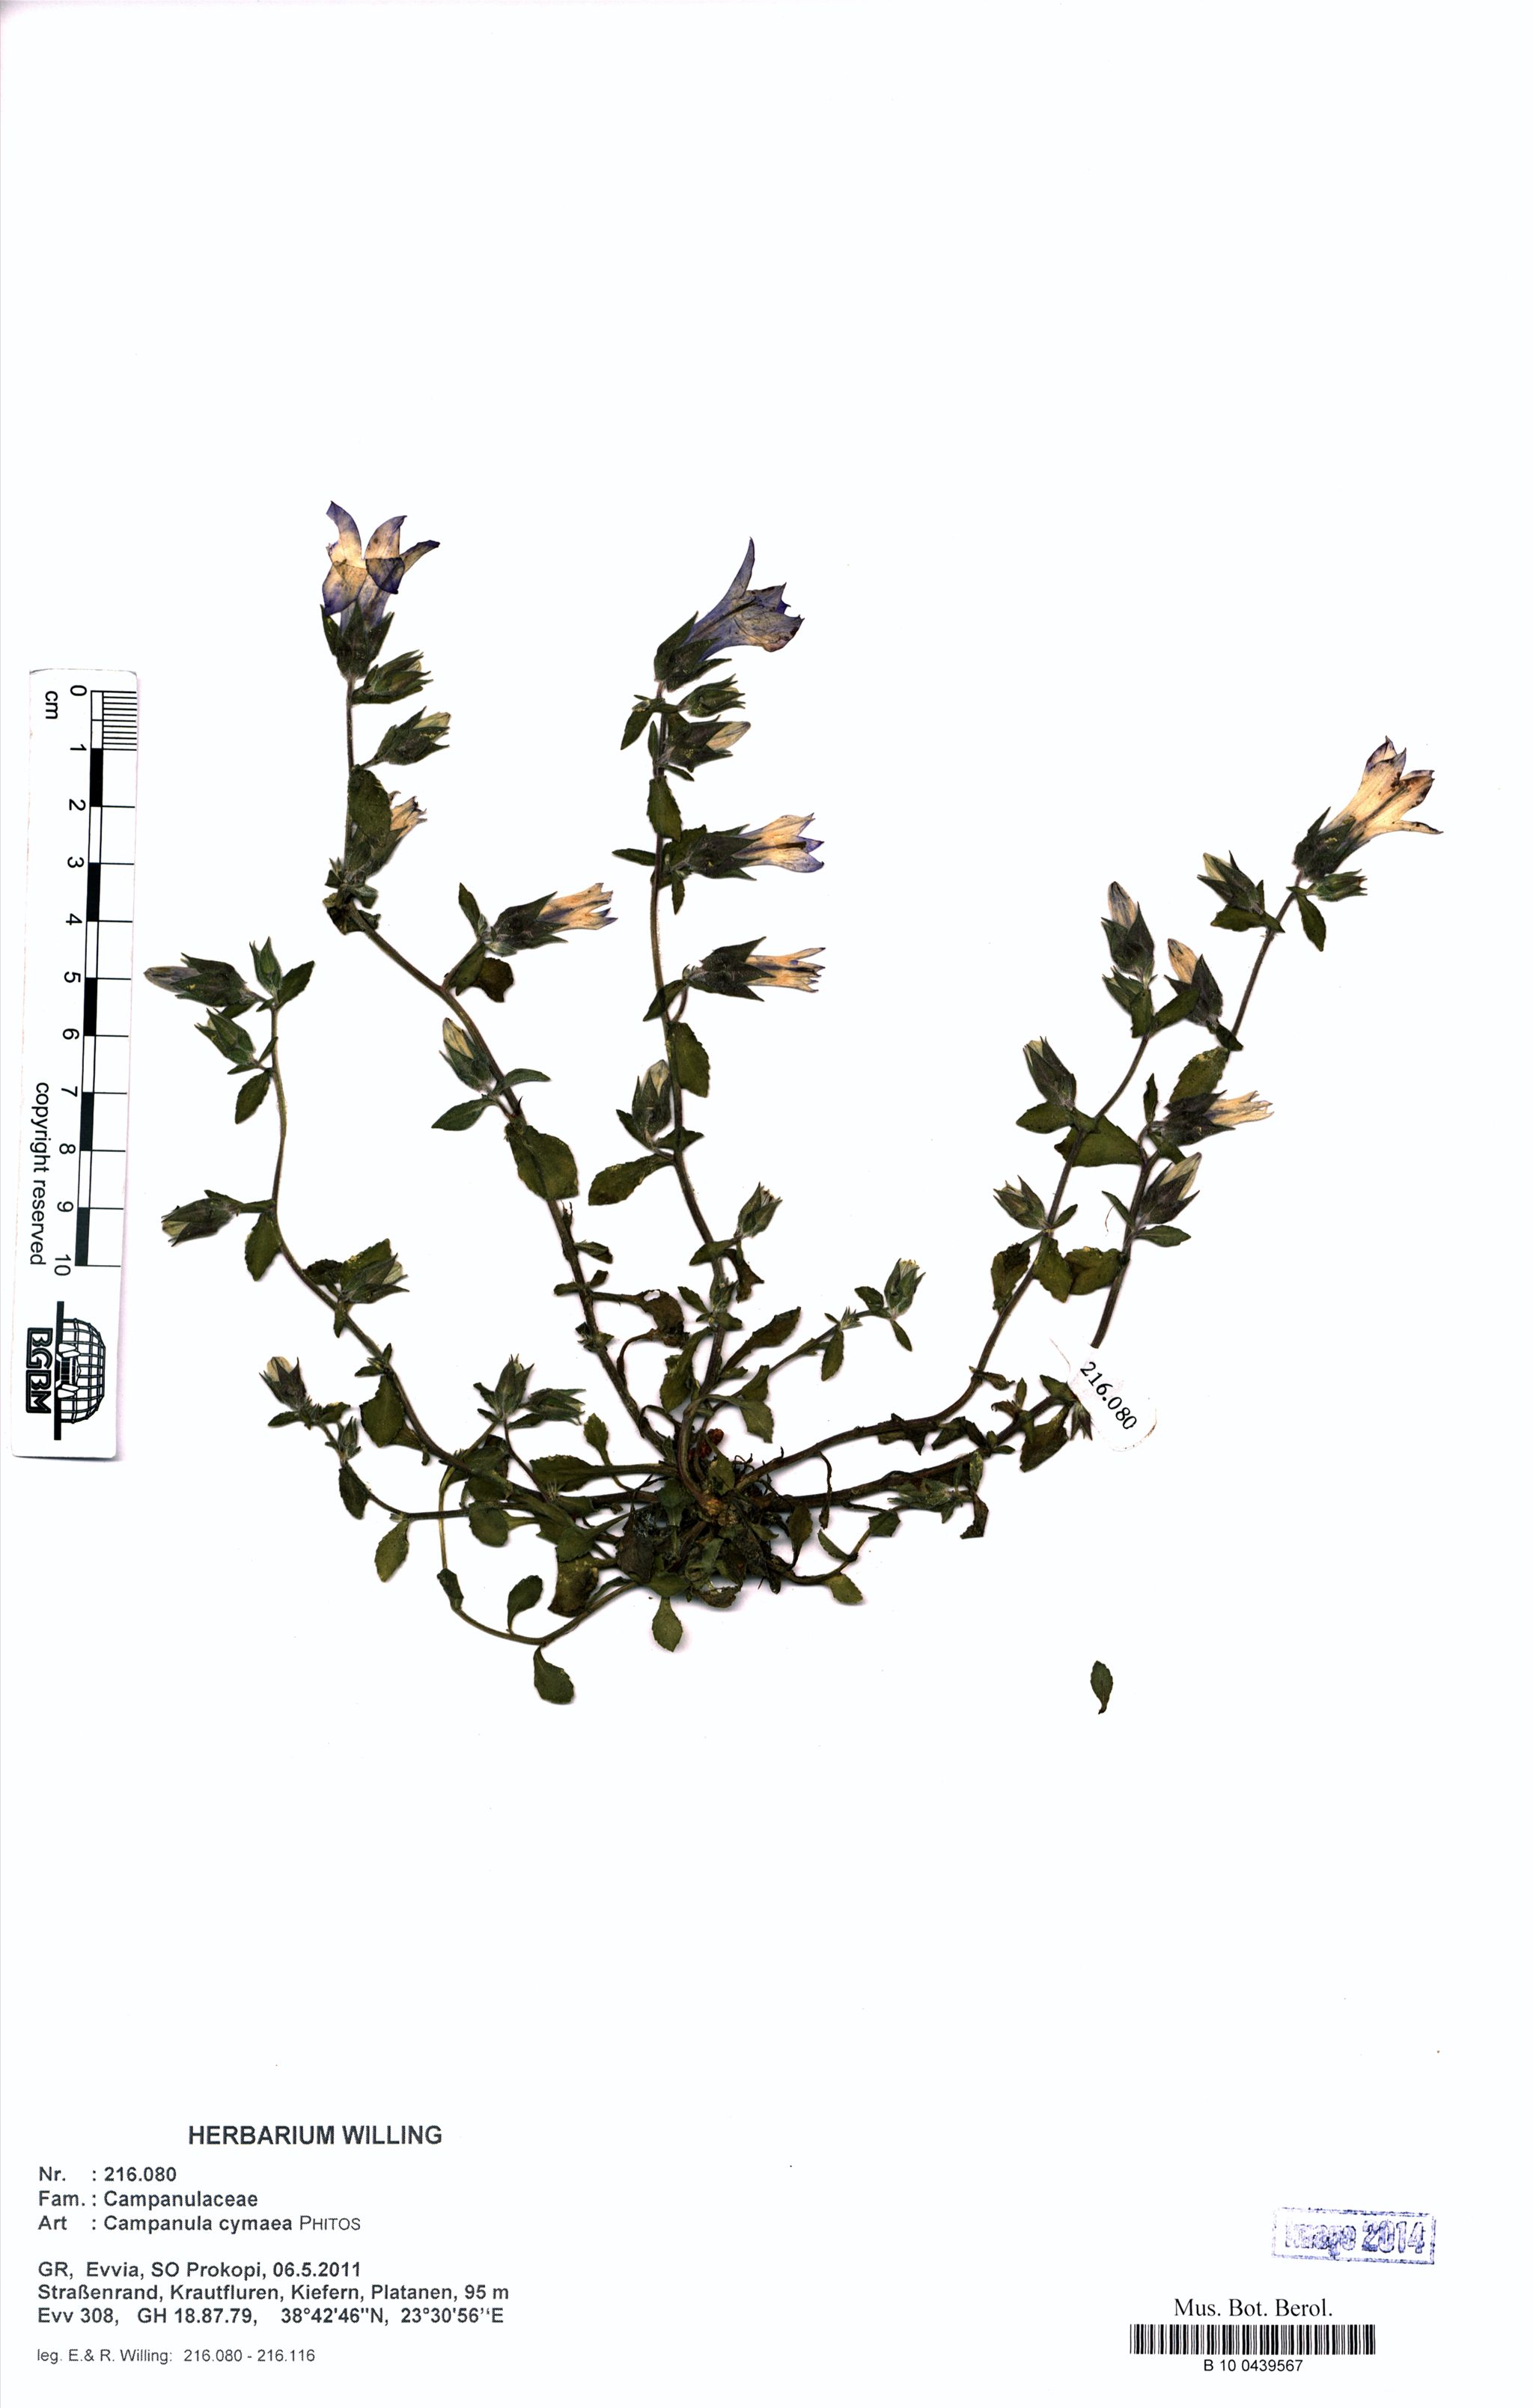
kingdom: Plantae
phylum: Tracheophyta
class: Magnoliopsida
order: Asterales
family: Campanulaceae
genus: Campanula
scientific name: Campanula cymaea
